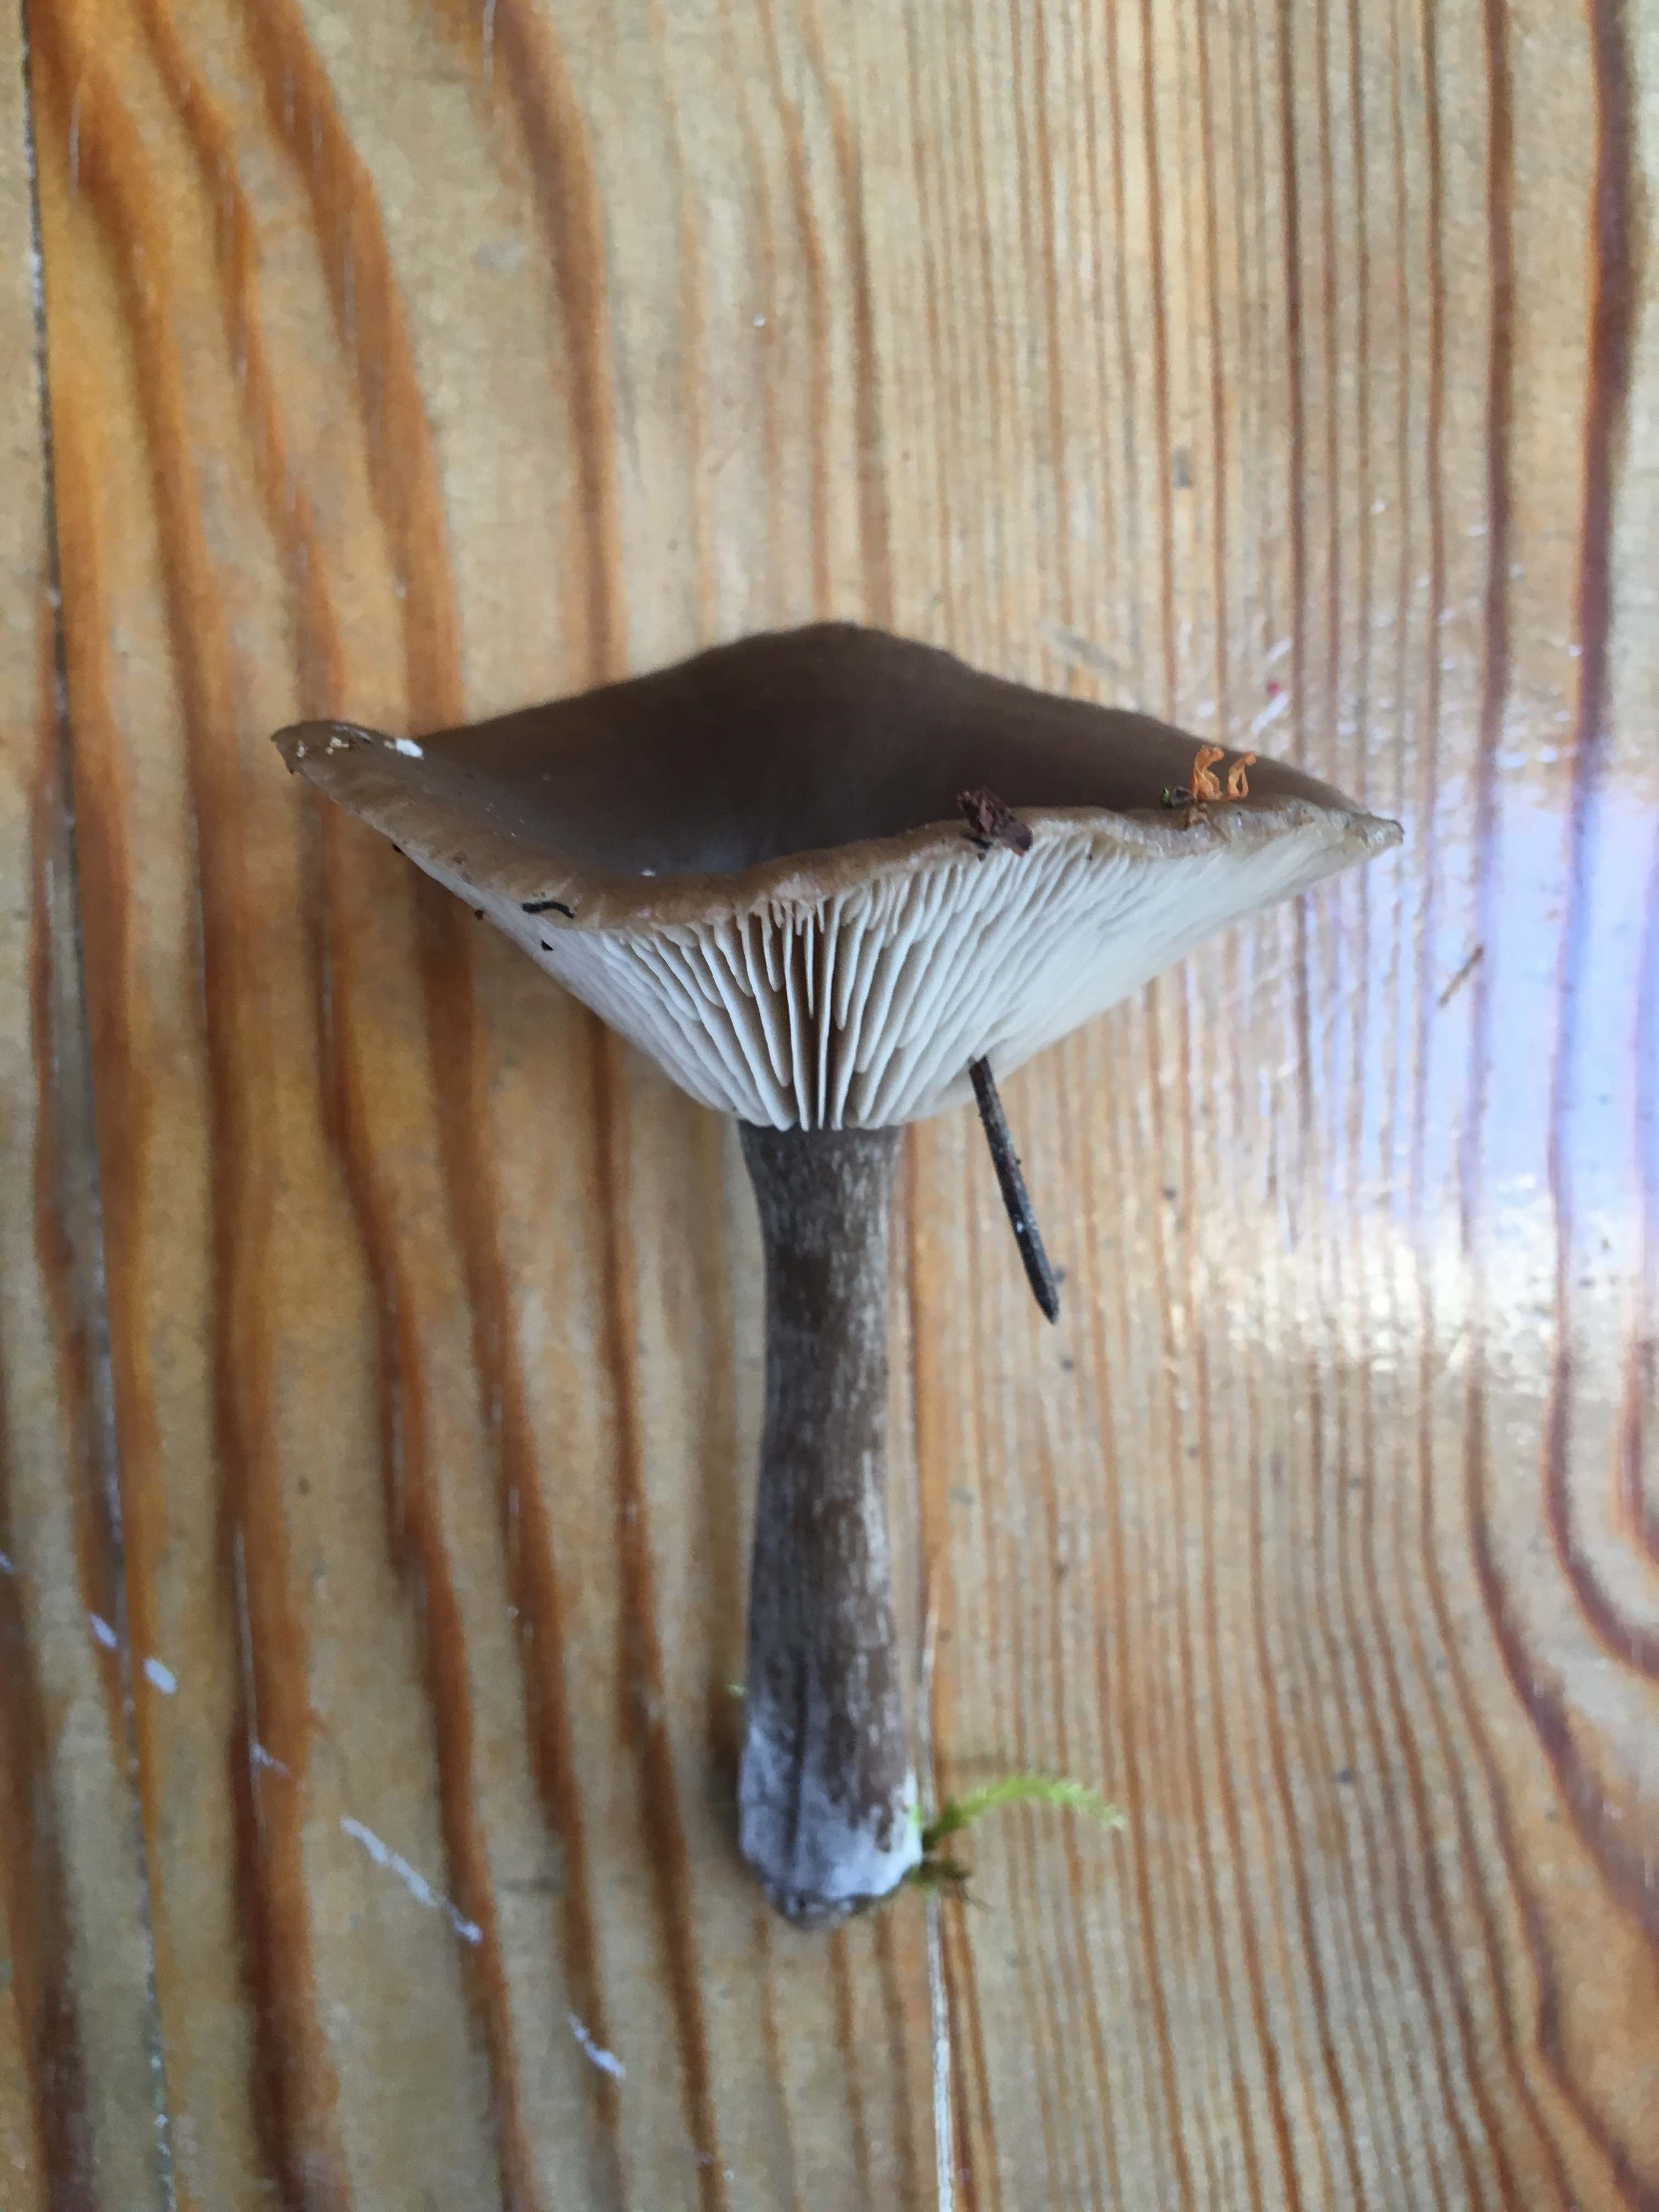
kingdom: Fungi
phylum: Basidiomycota
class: Agaricomycetes
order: Agaricales
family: Pseudoclitocybaceae
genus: Pseudoclitocybe
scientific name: Pseudoclitocybe cyathiformis
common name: almindelig bægertragthat
